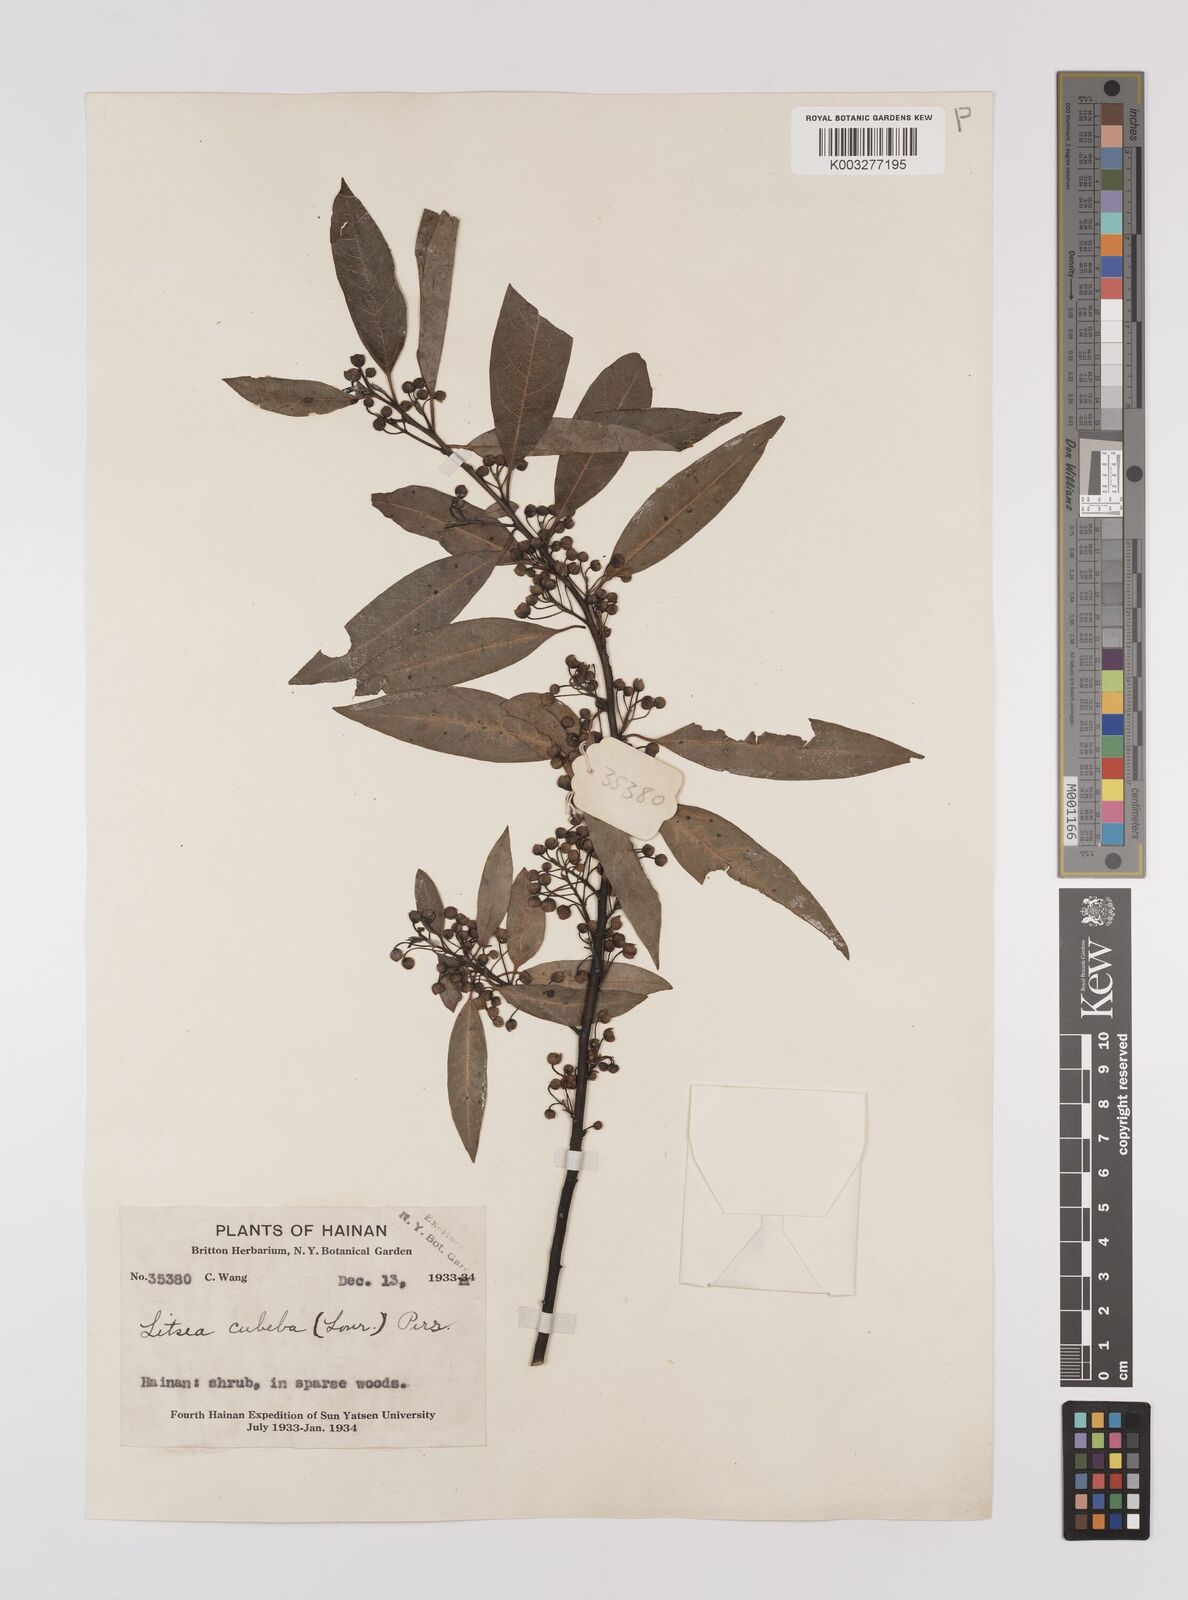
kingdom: Plantae
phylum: Tracheophyta
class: Magnoliopsida
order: Laurales
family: Lauraceae
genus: Litsea
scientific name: Litsea cubeba
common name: Mountain-pepper
